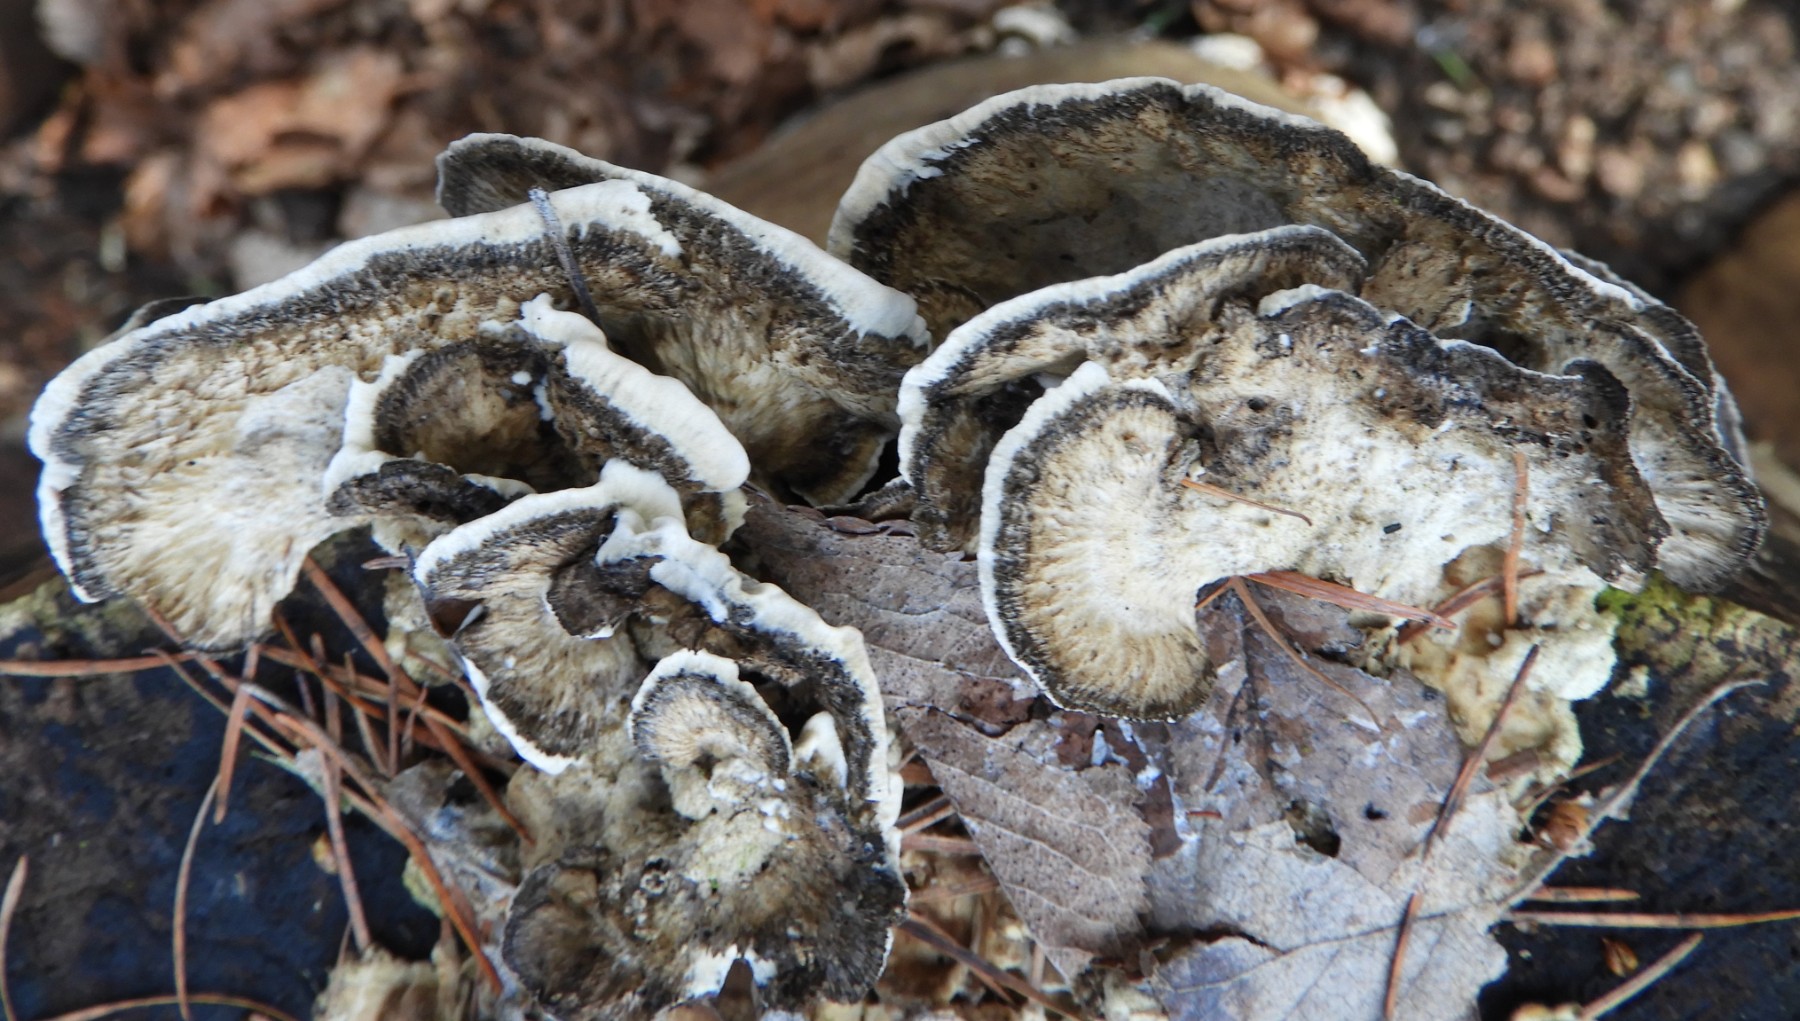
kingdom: Fungi
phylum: Basidiomycota
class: Agaricomycetes
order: Polyporales
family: Phanerochaetaceae
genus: Bjerkandera
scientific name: Bjerkandera adusta
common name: sveden sodporesvamp
